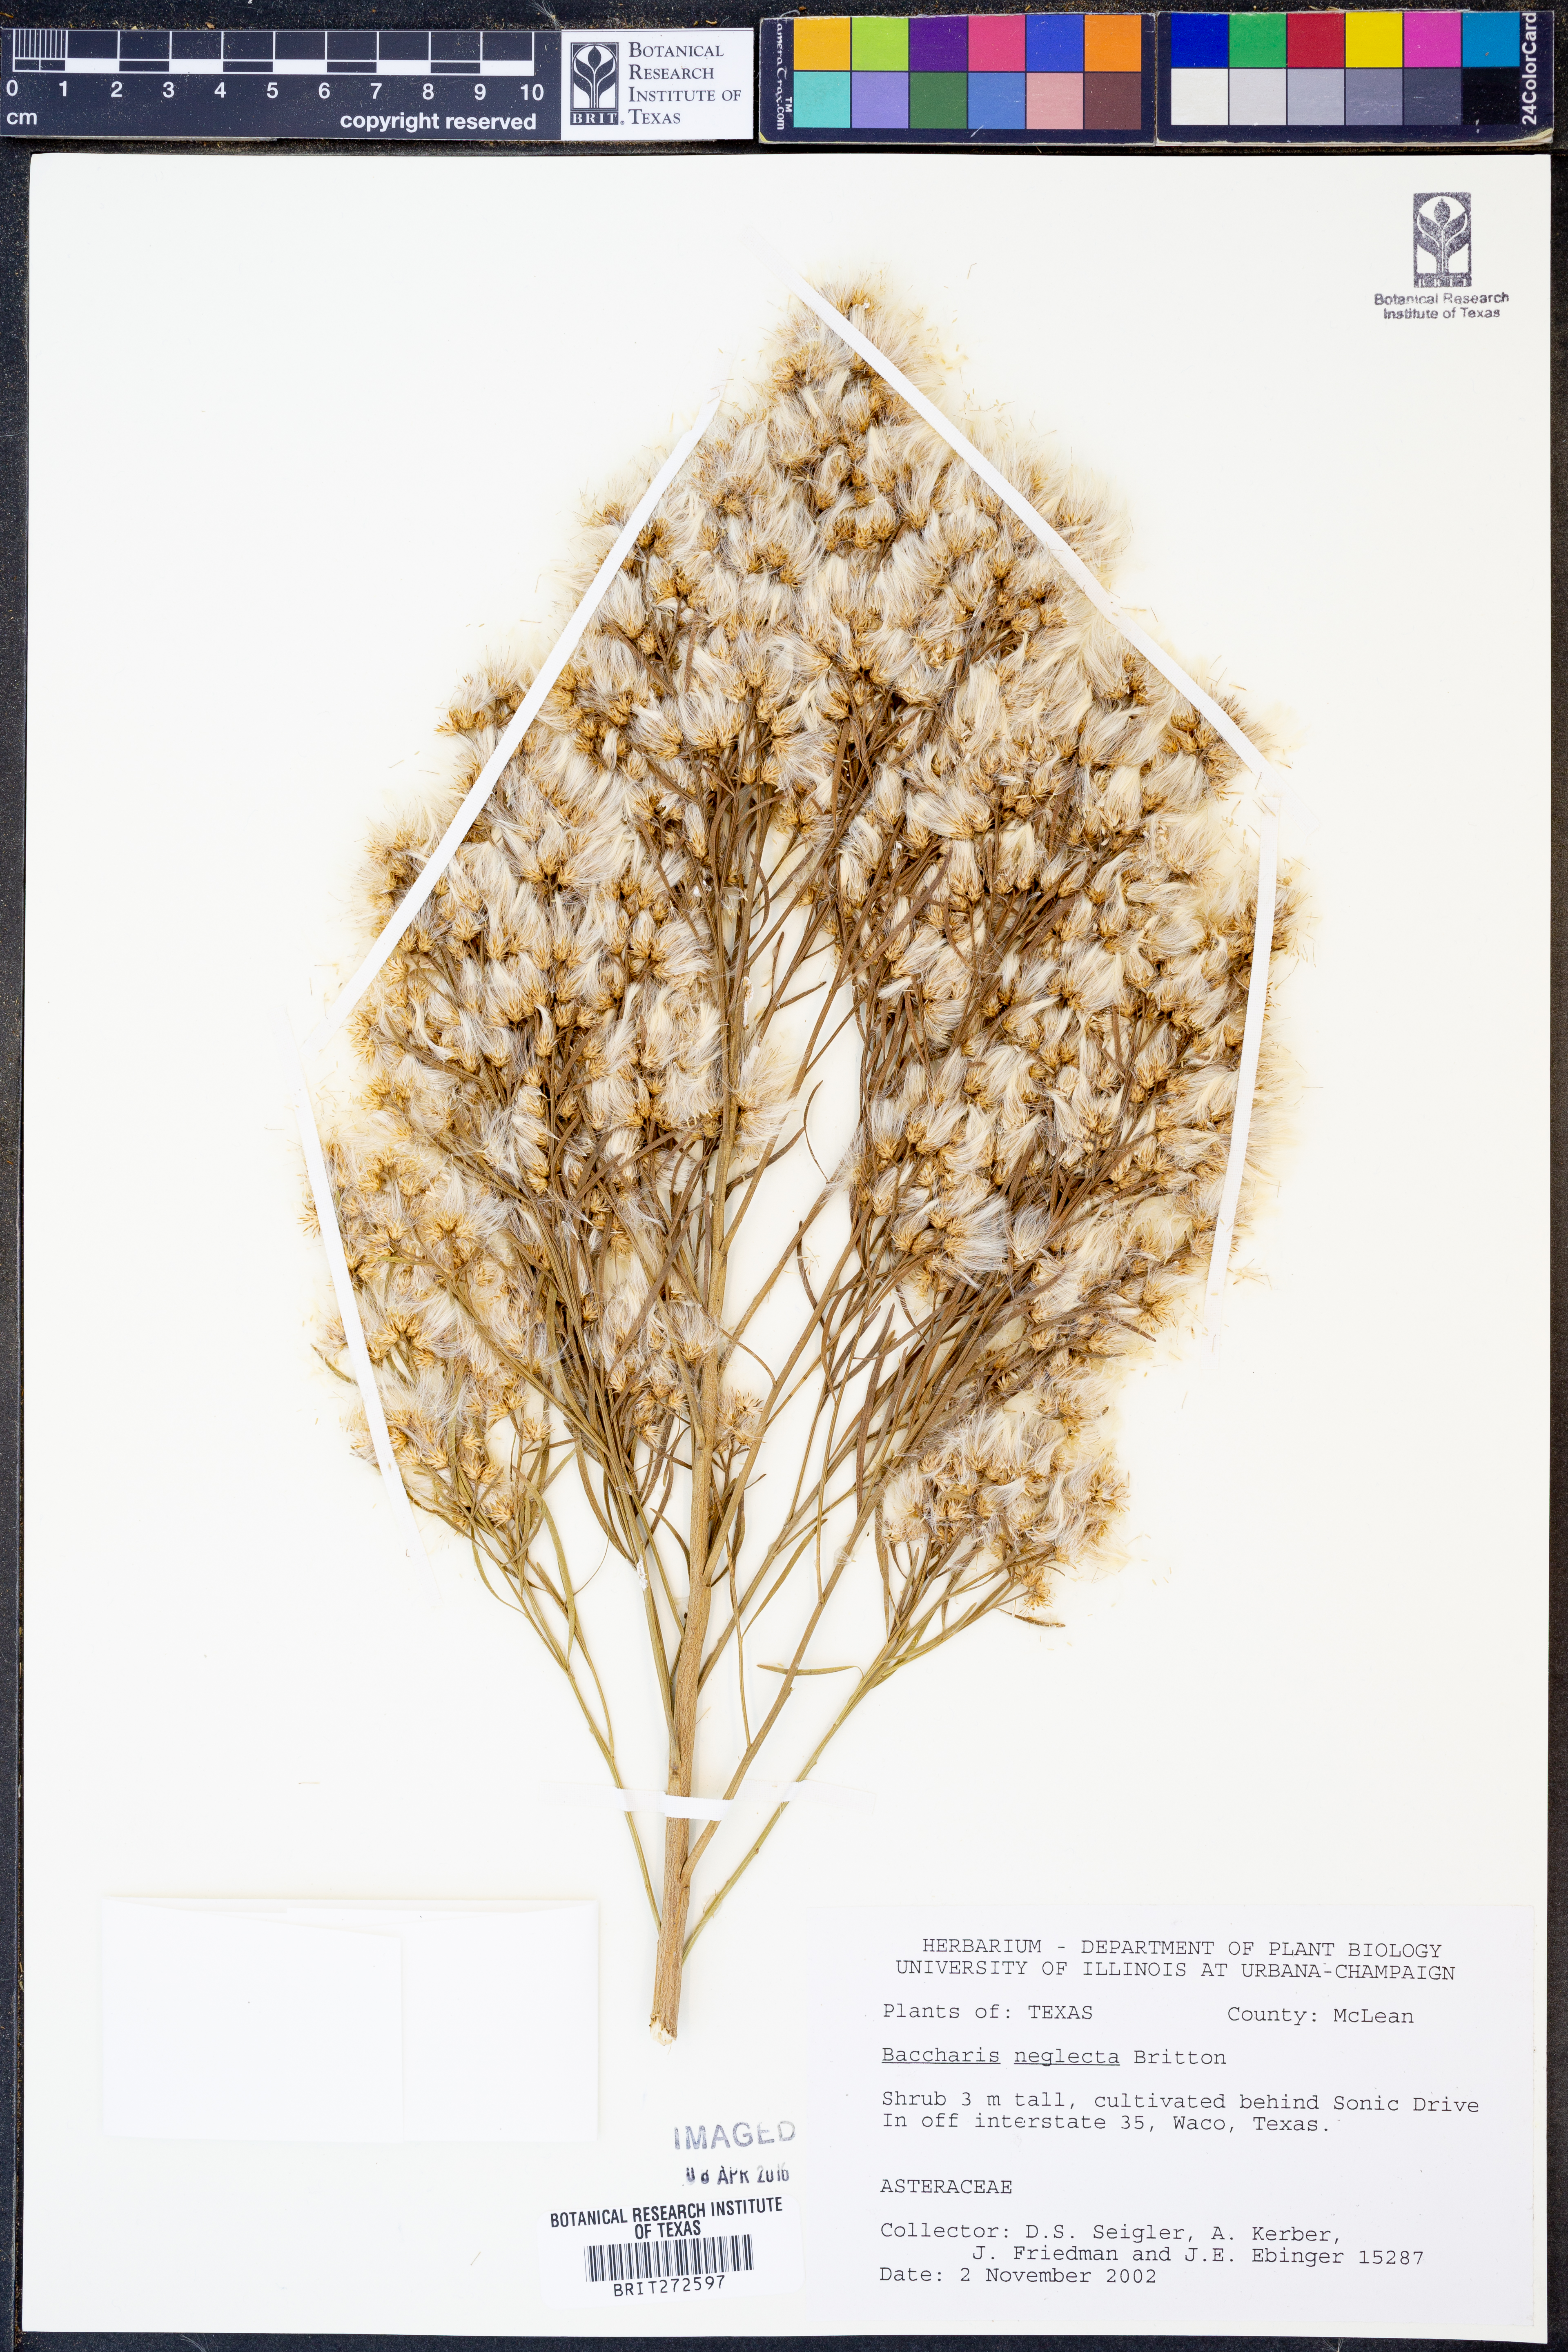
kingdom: Plantae
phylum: Tracheophyta
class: Magnoliopsida
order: Asterales
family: Asteraceae
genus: Baccharis
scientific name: Baccharis neglecta
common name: Roosevelt-weed
